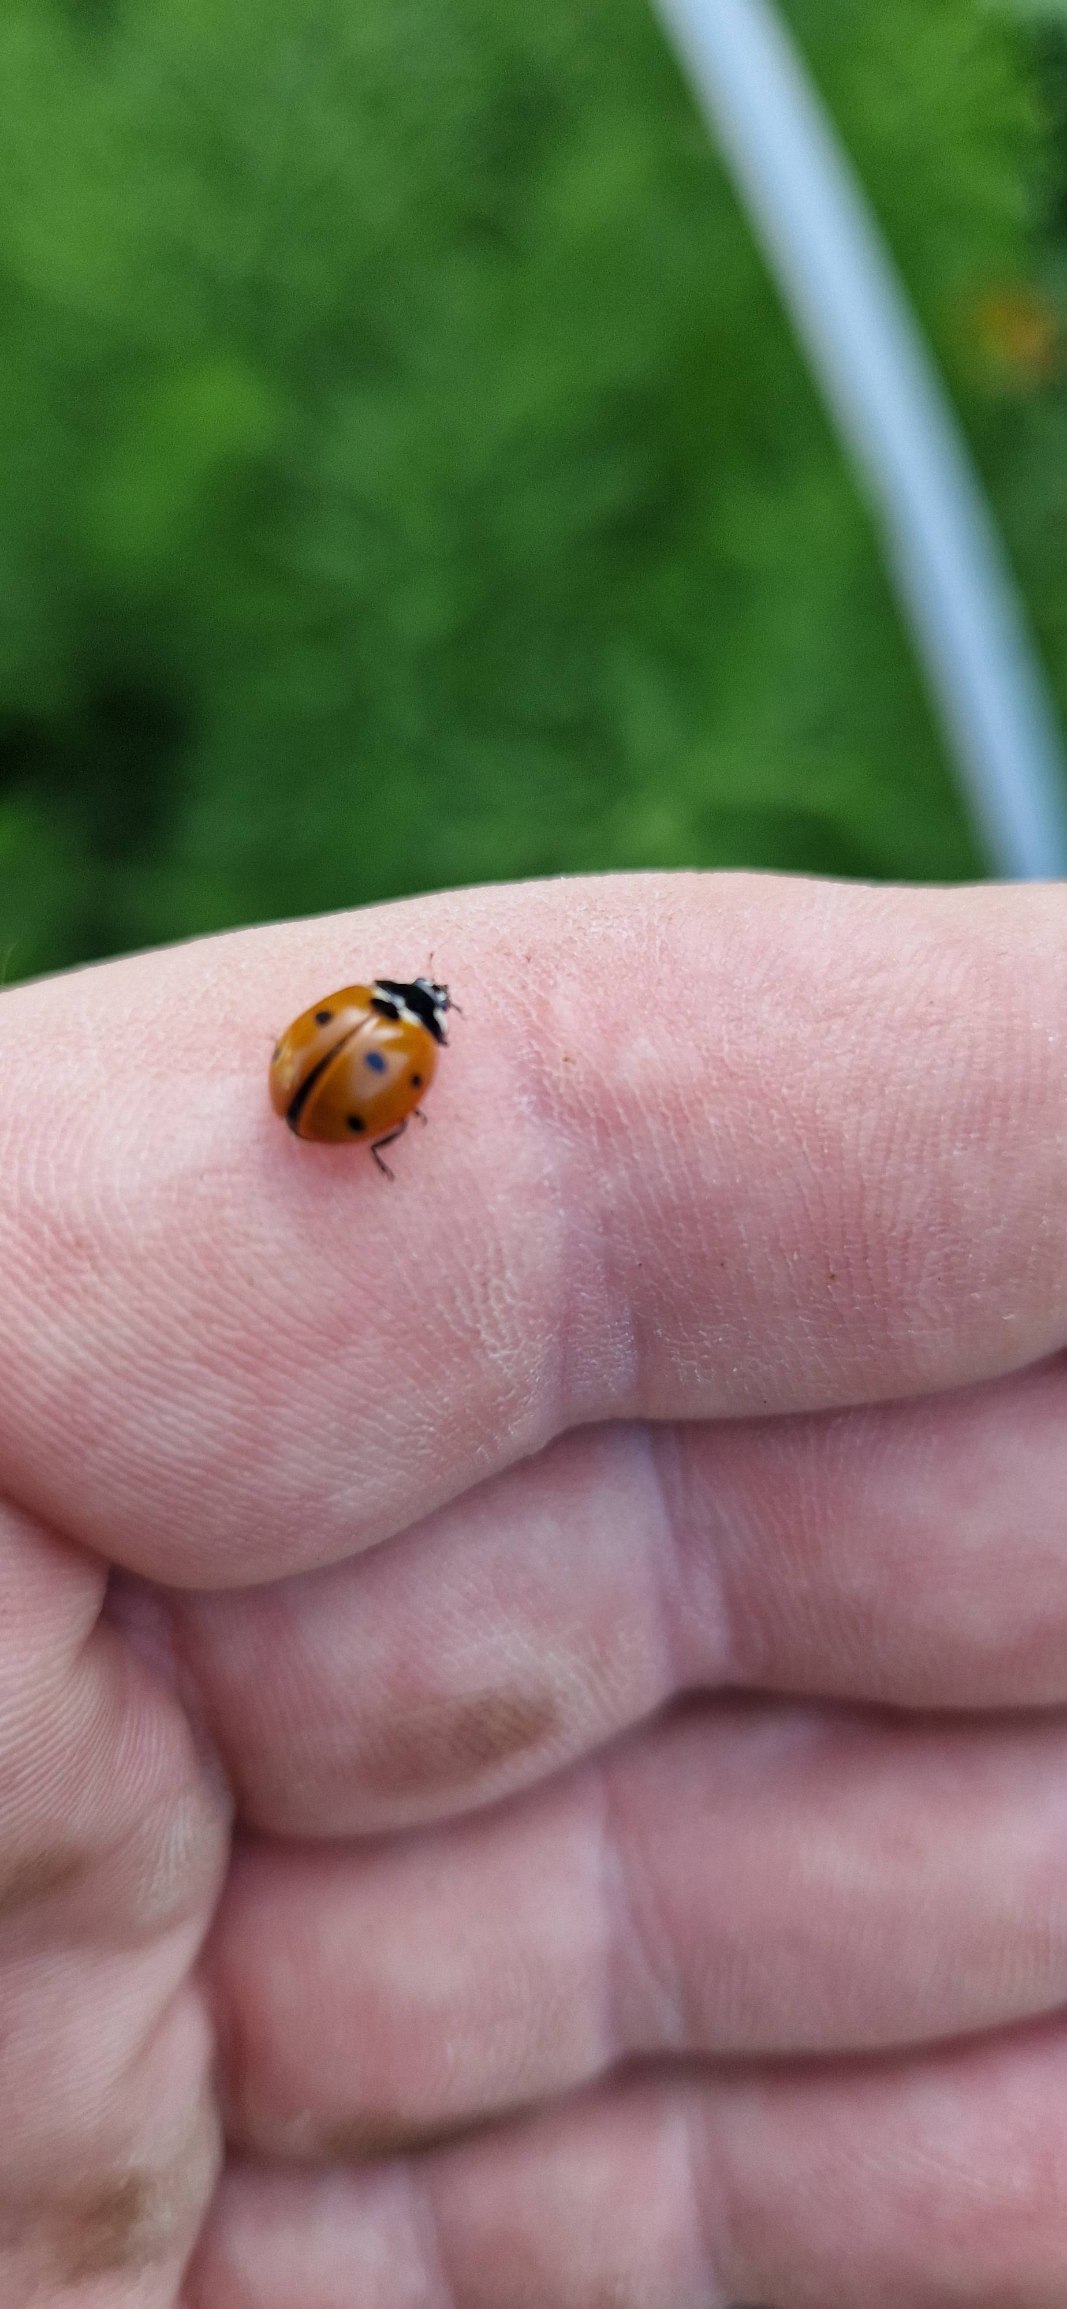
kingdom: Animalia
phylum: Arthropoda
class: Insecta
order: Coleoptera
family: Coccinellidae
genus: Coccinella
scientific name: Coccinella septempunctata
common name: Syvplettet mariehøne
